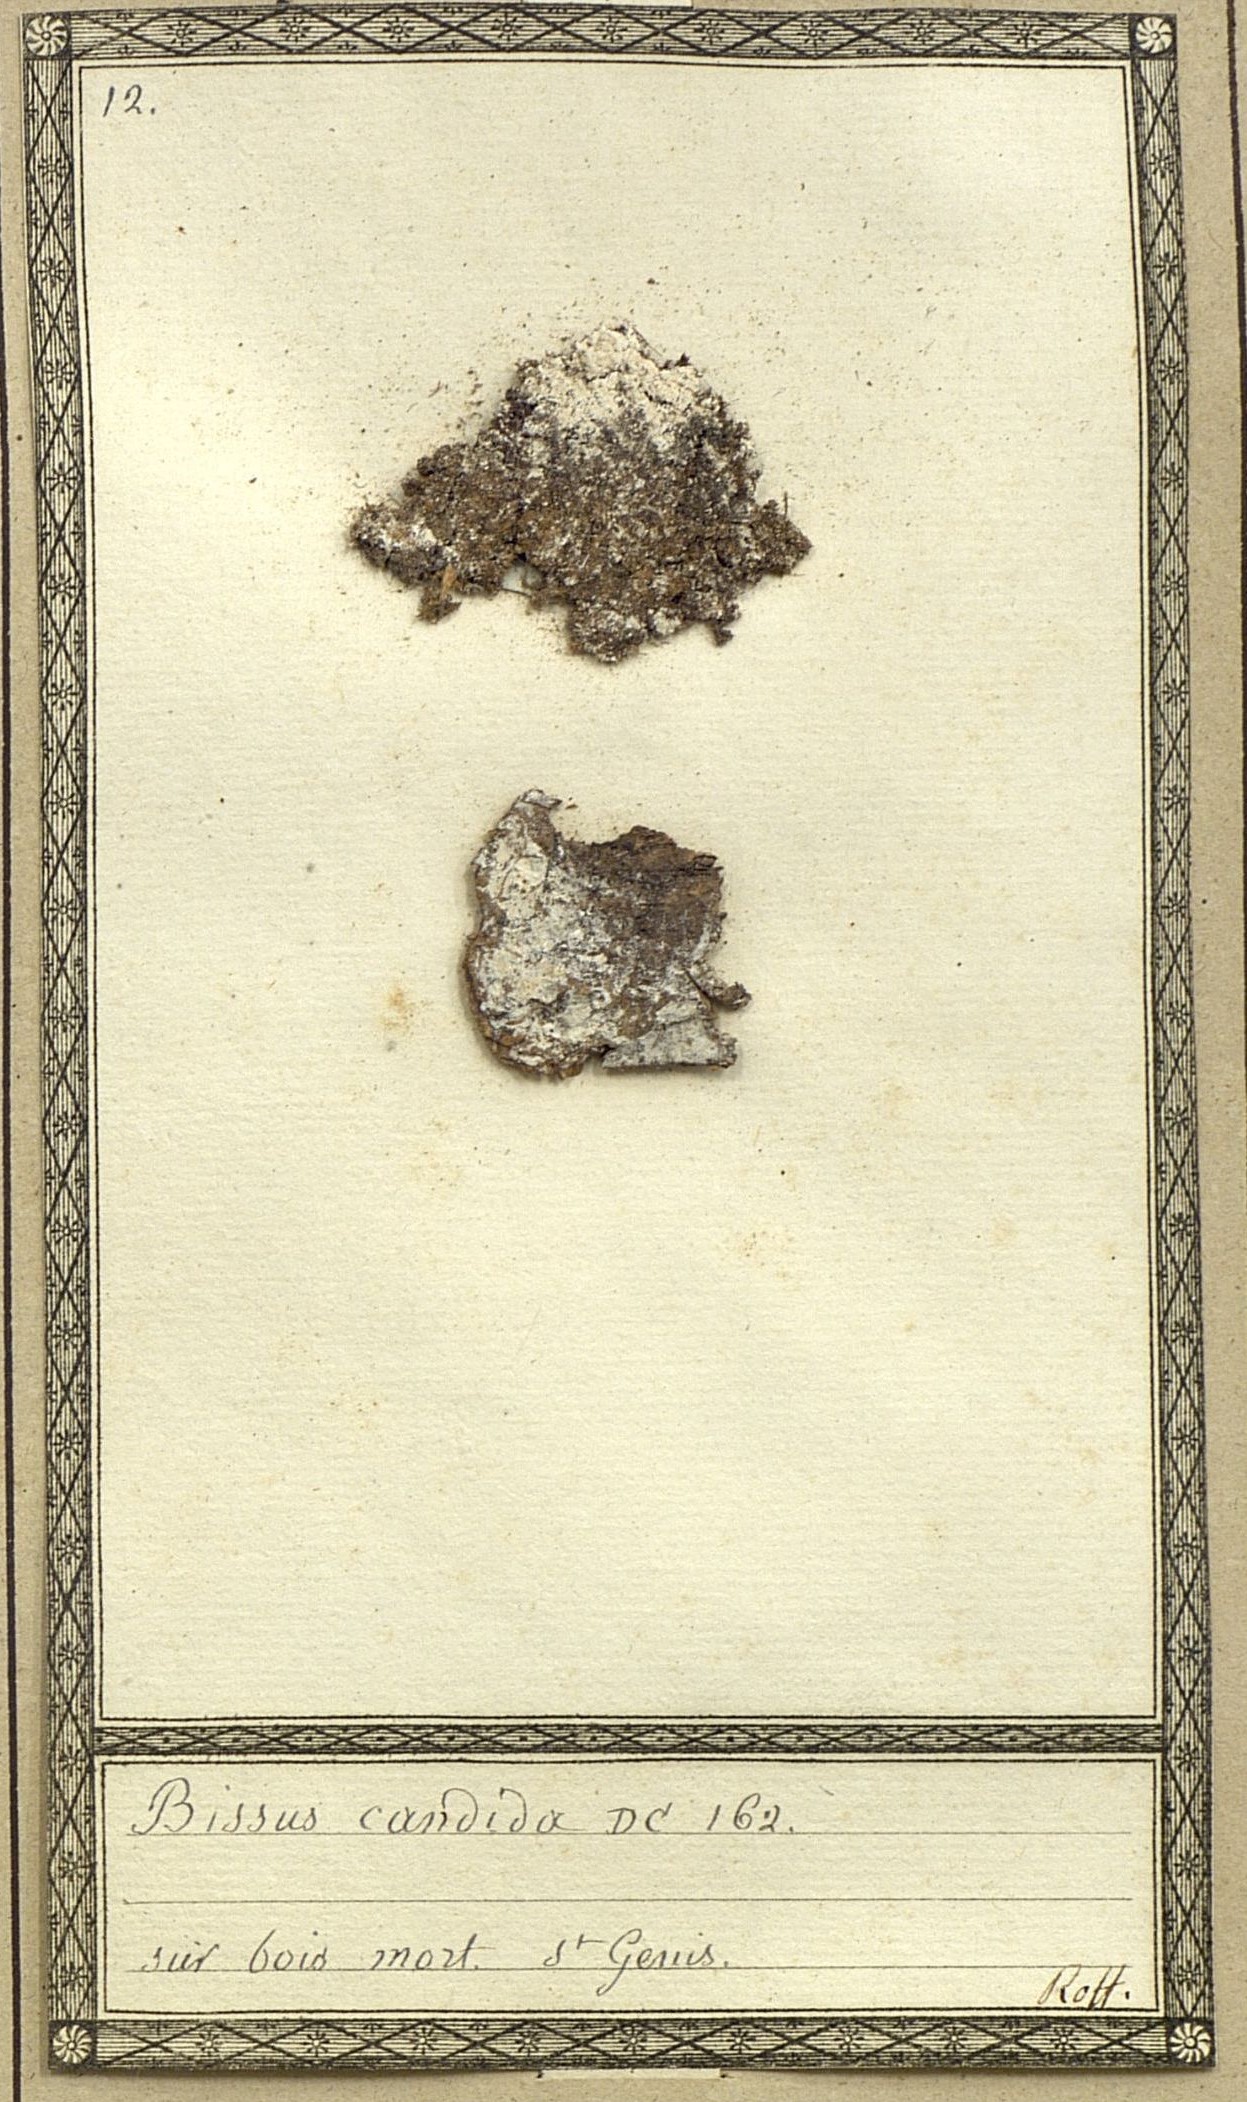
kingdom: Fungi
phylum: Ascomycota
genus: Himantia
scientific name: Himantia candida
